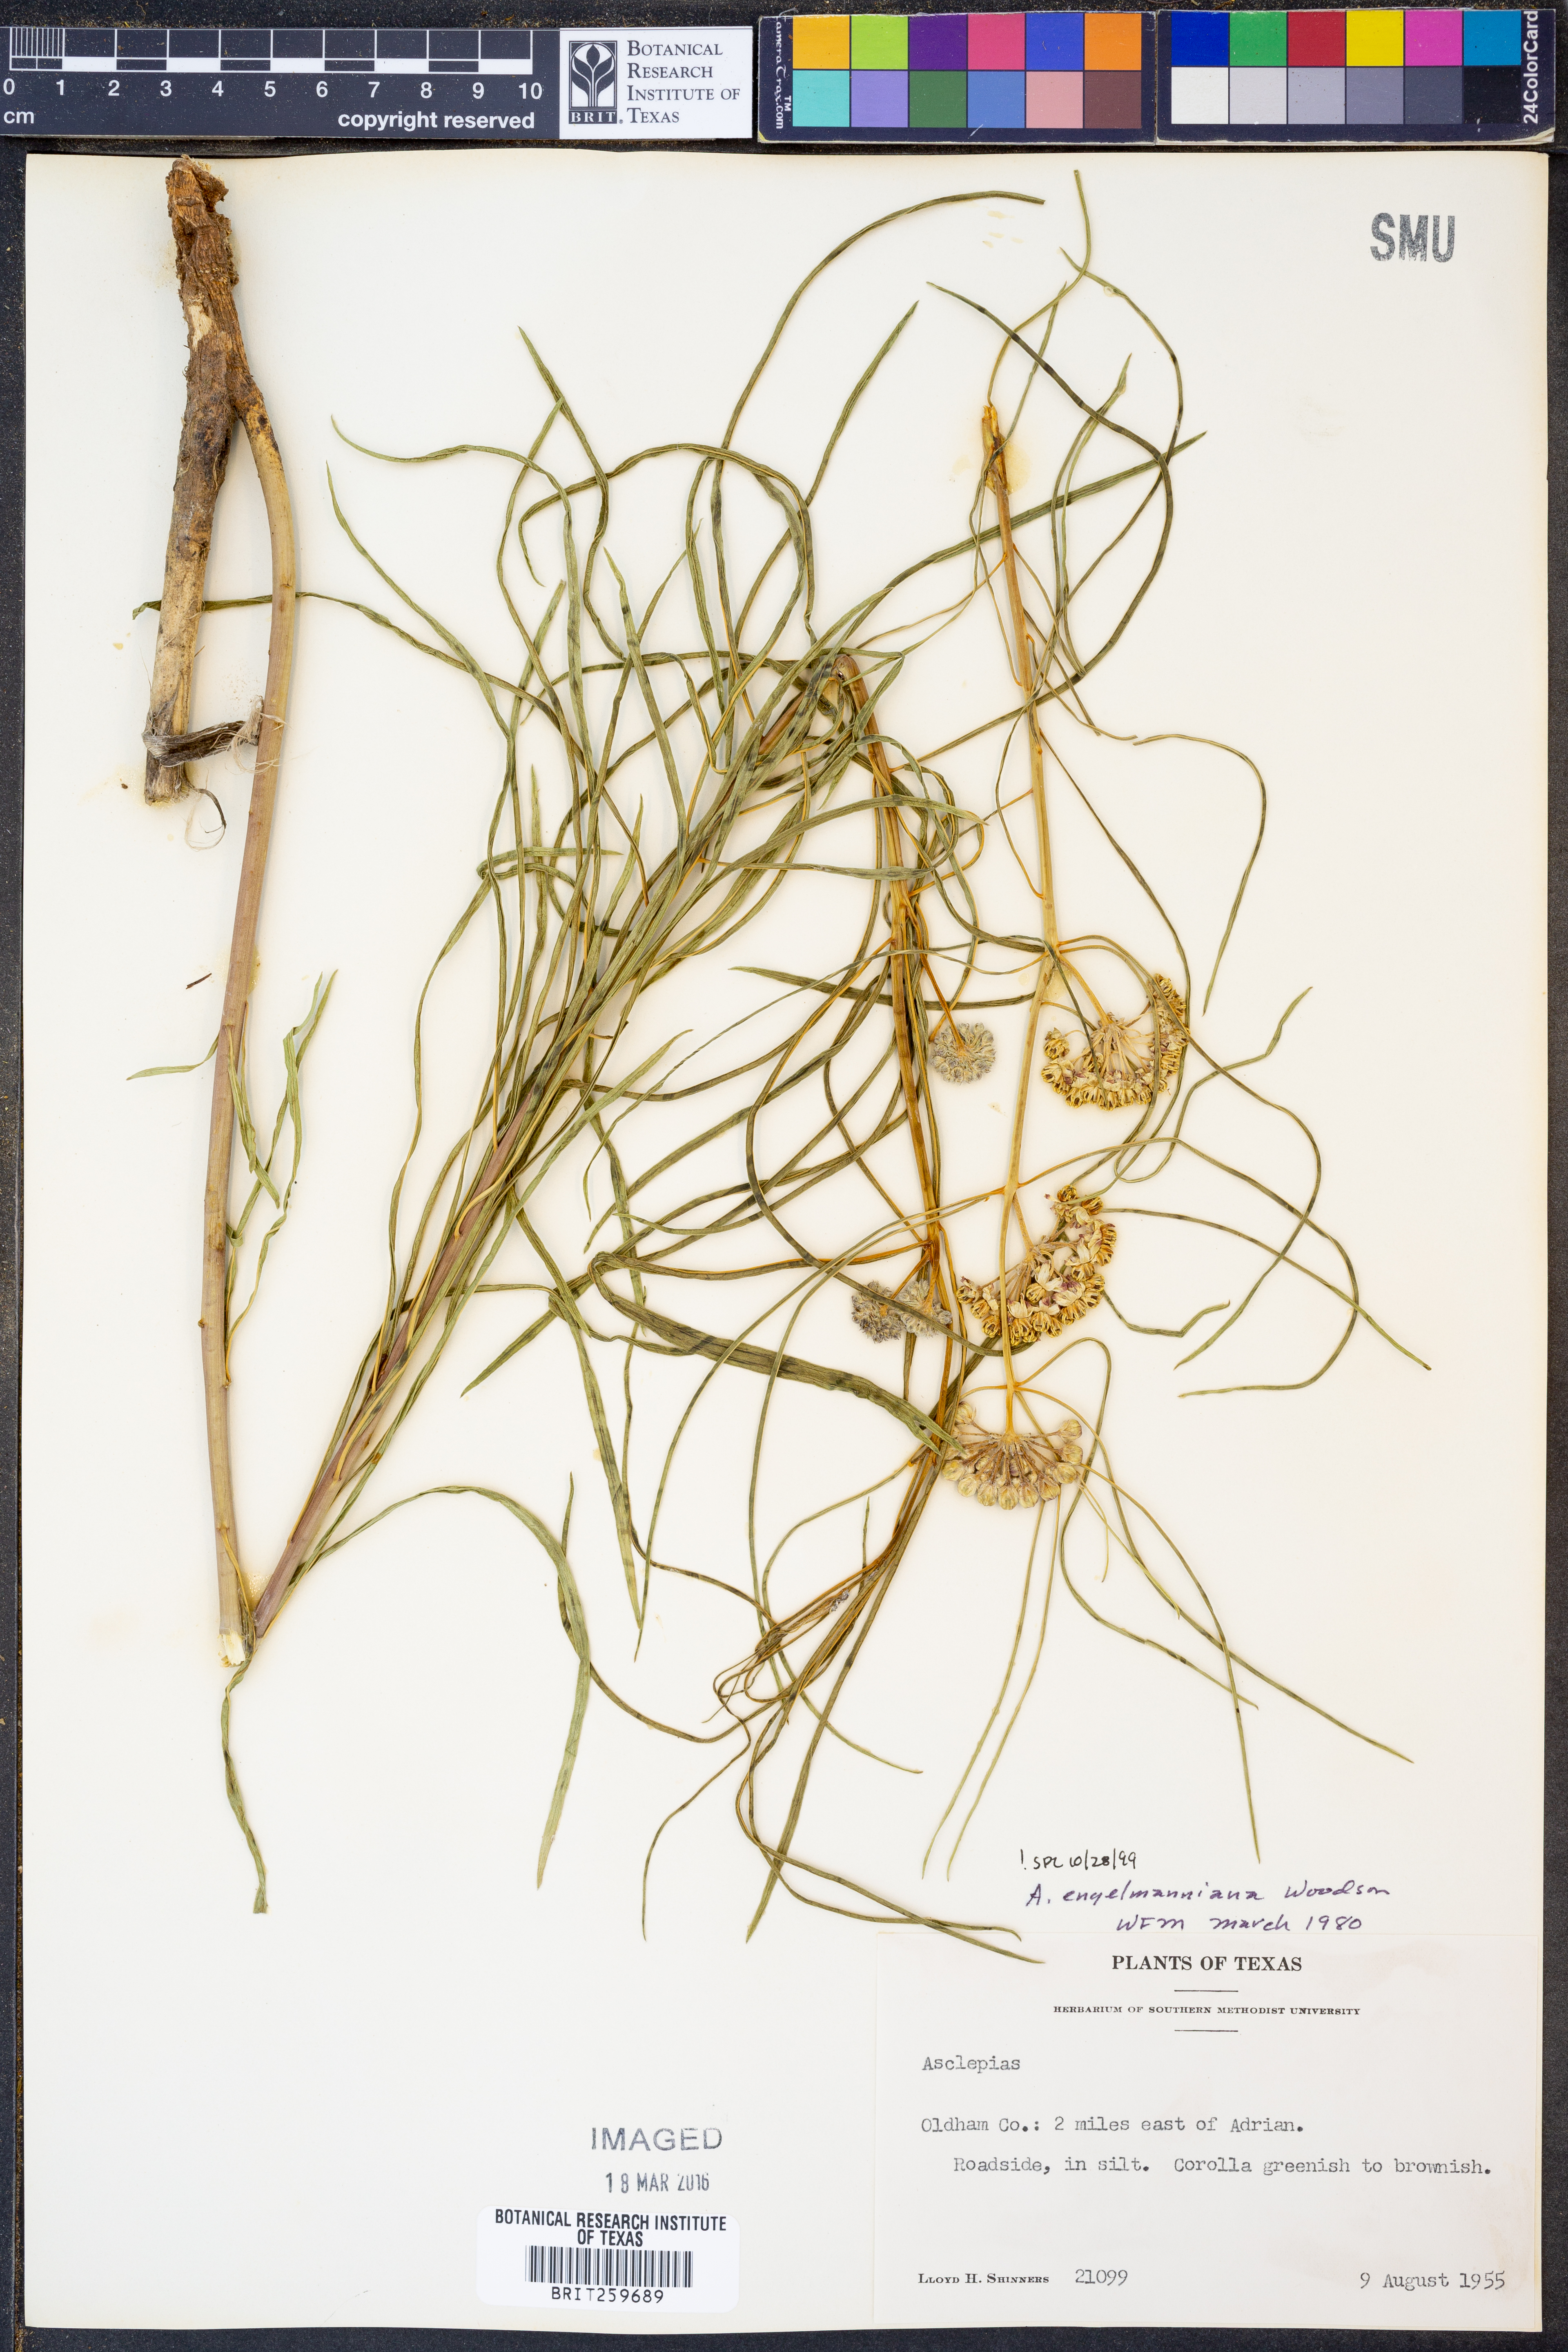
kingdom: Plantae
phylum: Tracheophyta
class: Magnoliopsida
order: Gentianales
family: Apocynaceae
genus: Asclepias
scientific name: Asclepias engelmanniana
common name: Engelmann's milkweed
